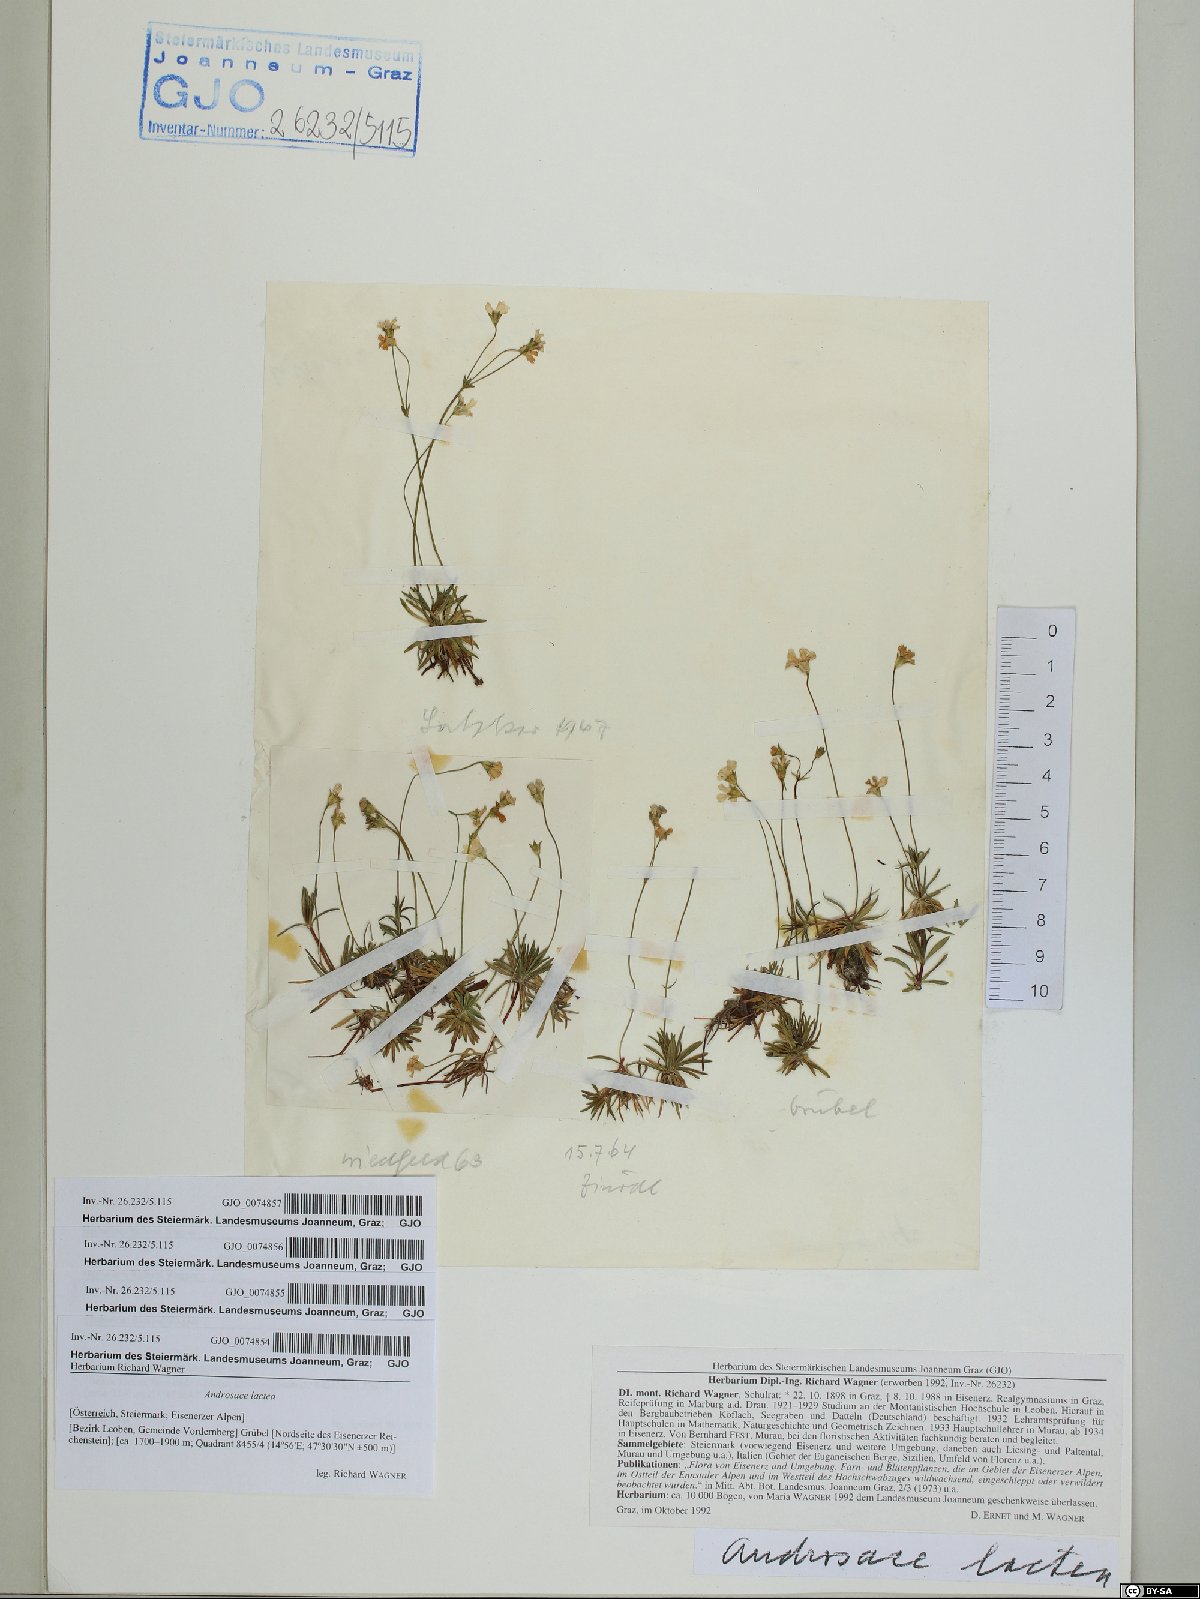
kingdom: Plantae
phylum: Tracheophyta
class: Magnoliopsida
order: Ericales
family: Primulaceae
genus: Androsace
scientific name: Androsace lactea
